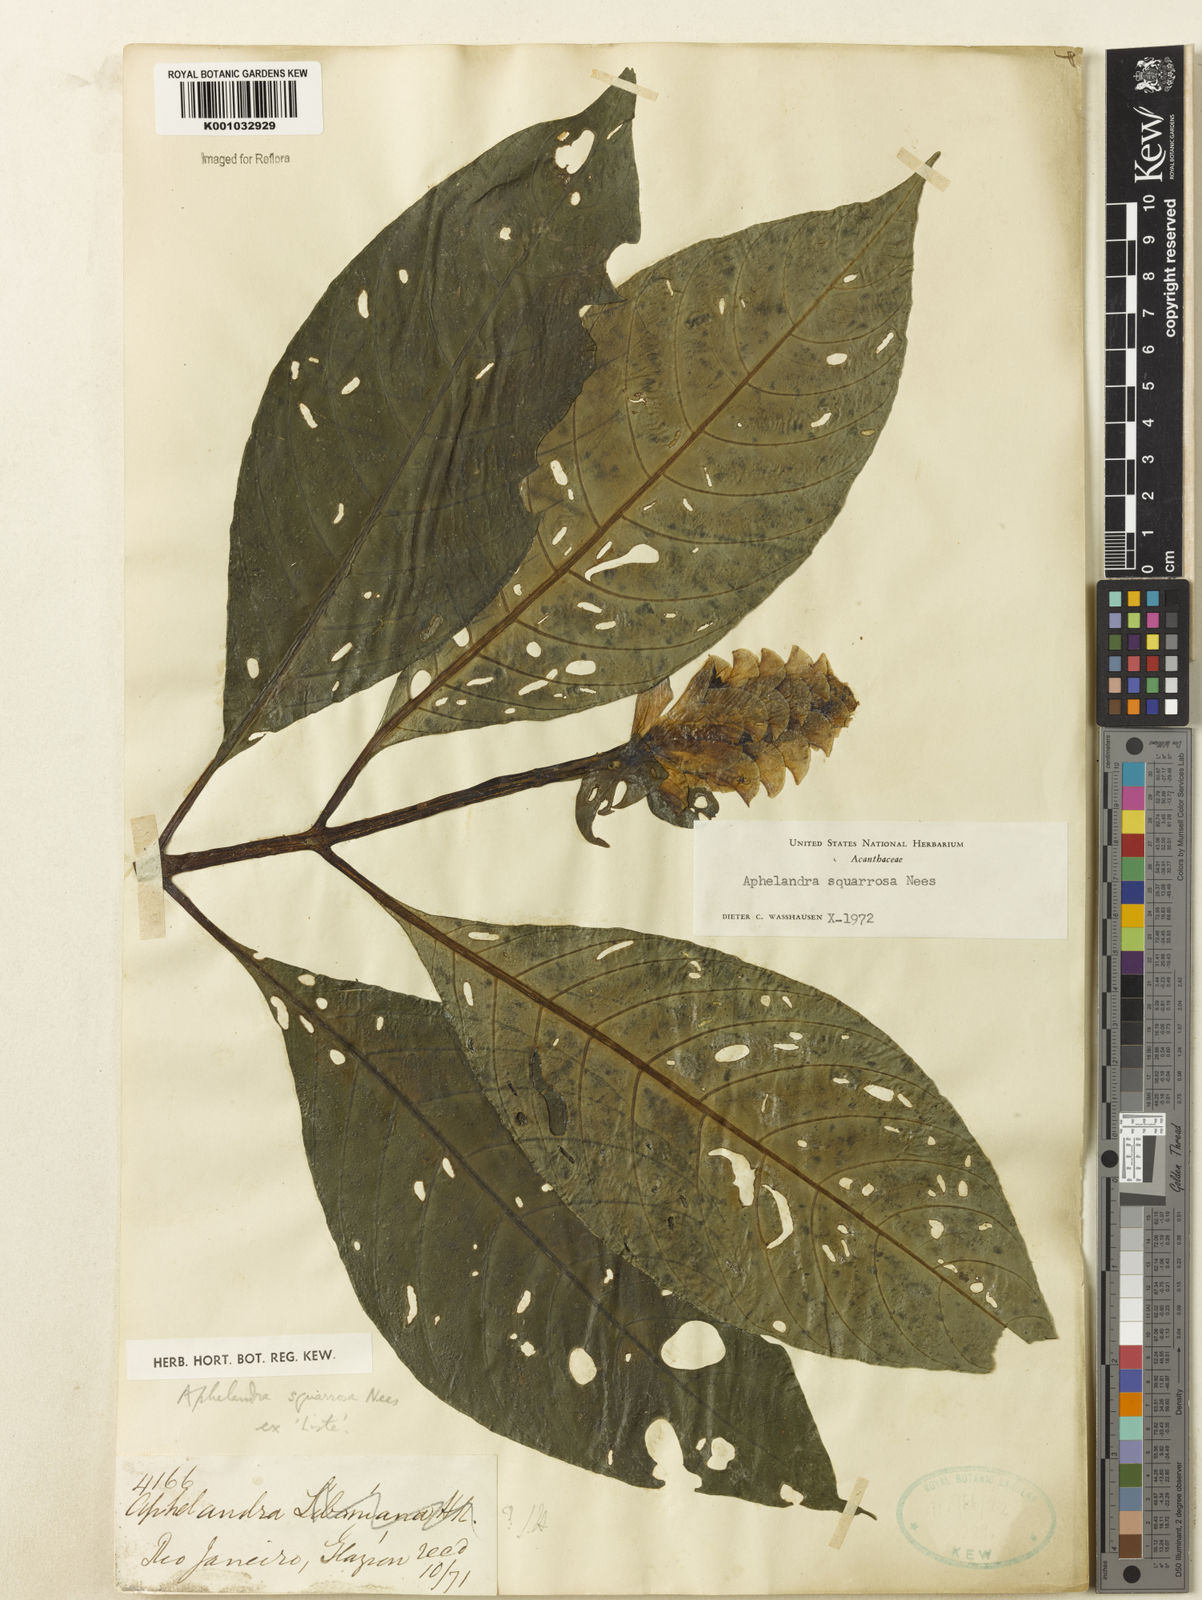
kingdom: Plantae
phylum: Tracheophyta
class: Magnoliopsida
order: Lamiales
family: Acanthaceae
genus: Aphelandra
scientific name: Aphelandra squarrosa
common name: Saffron spike
